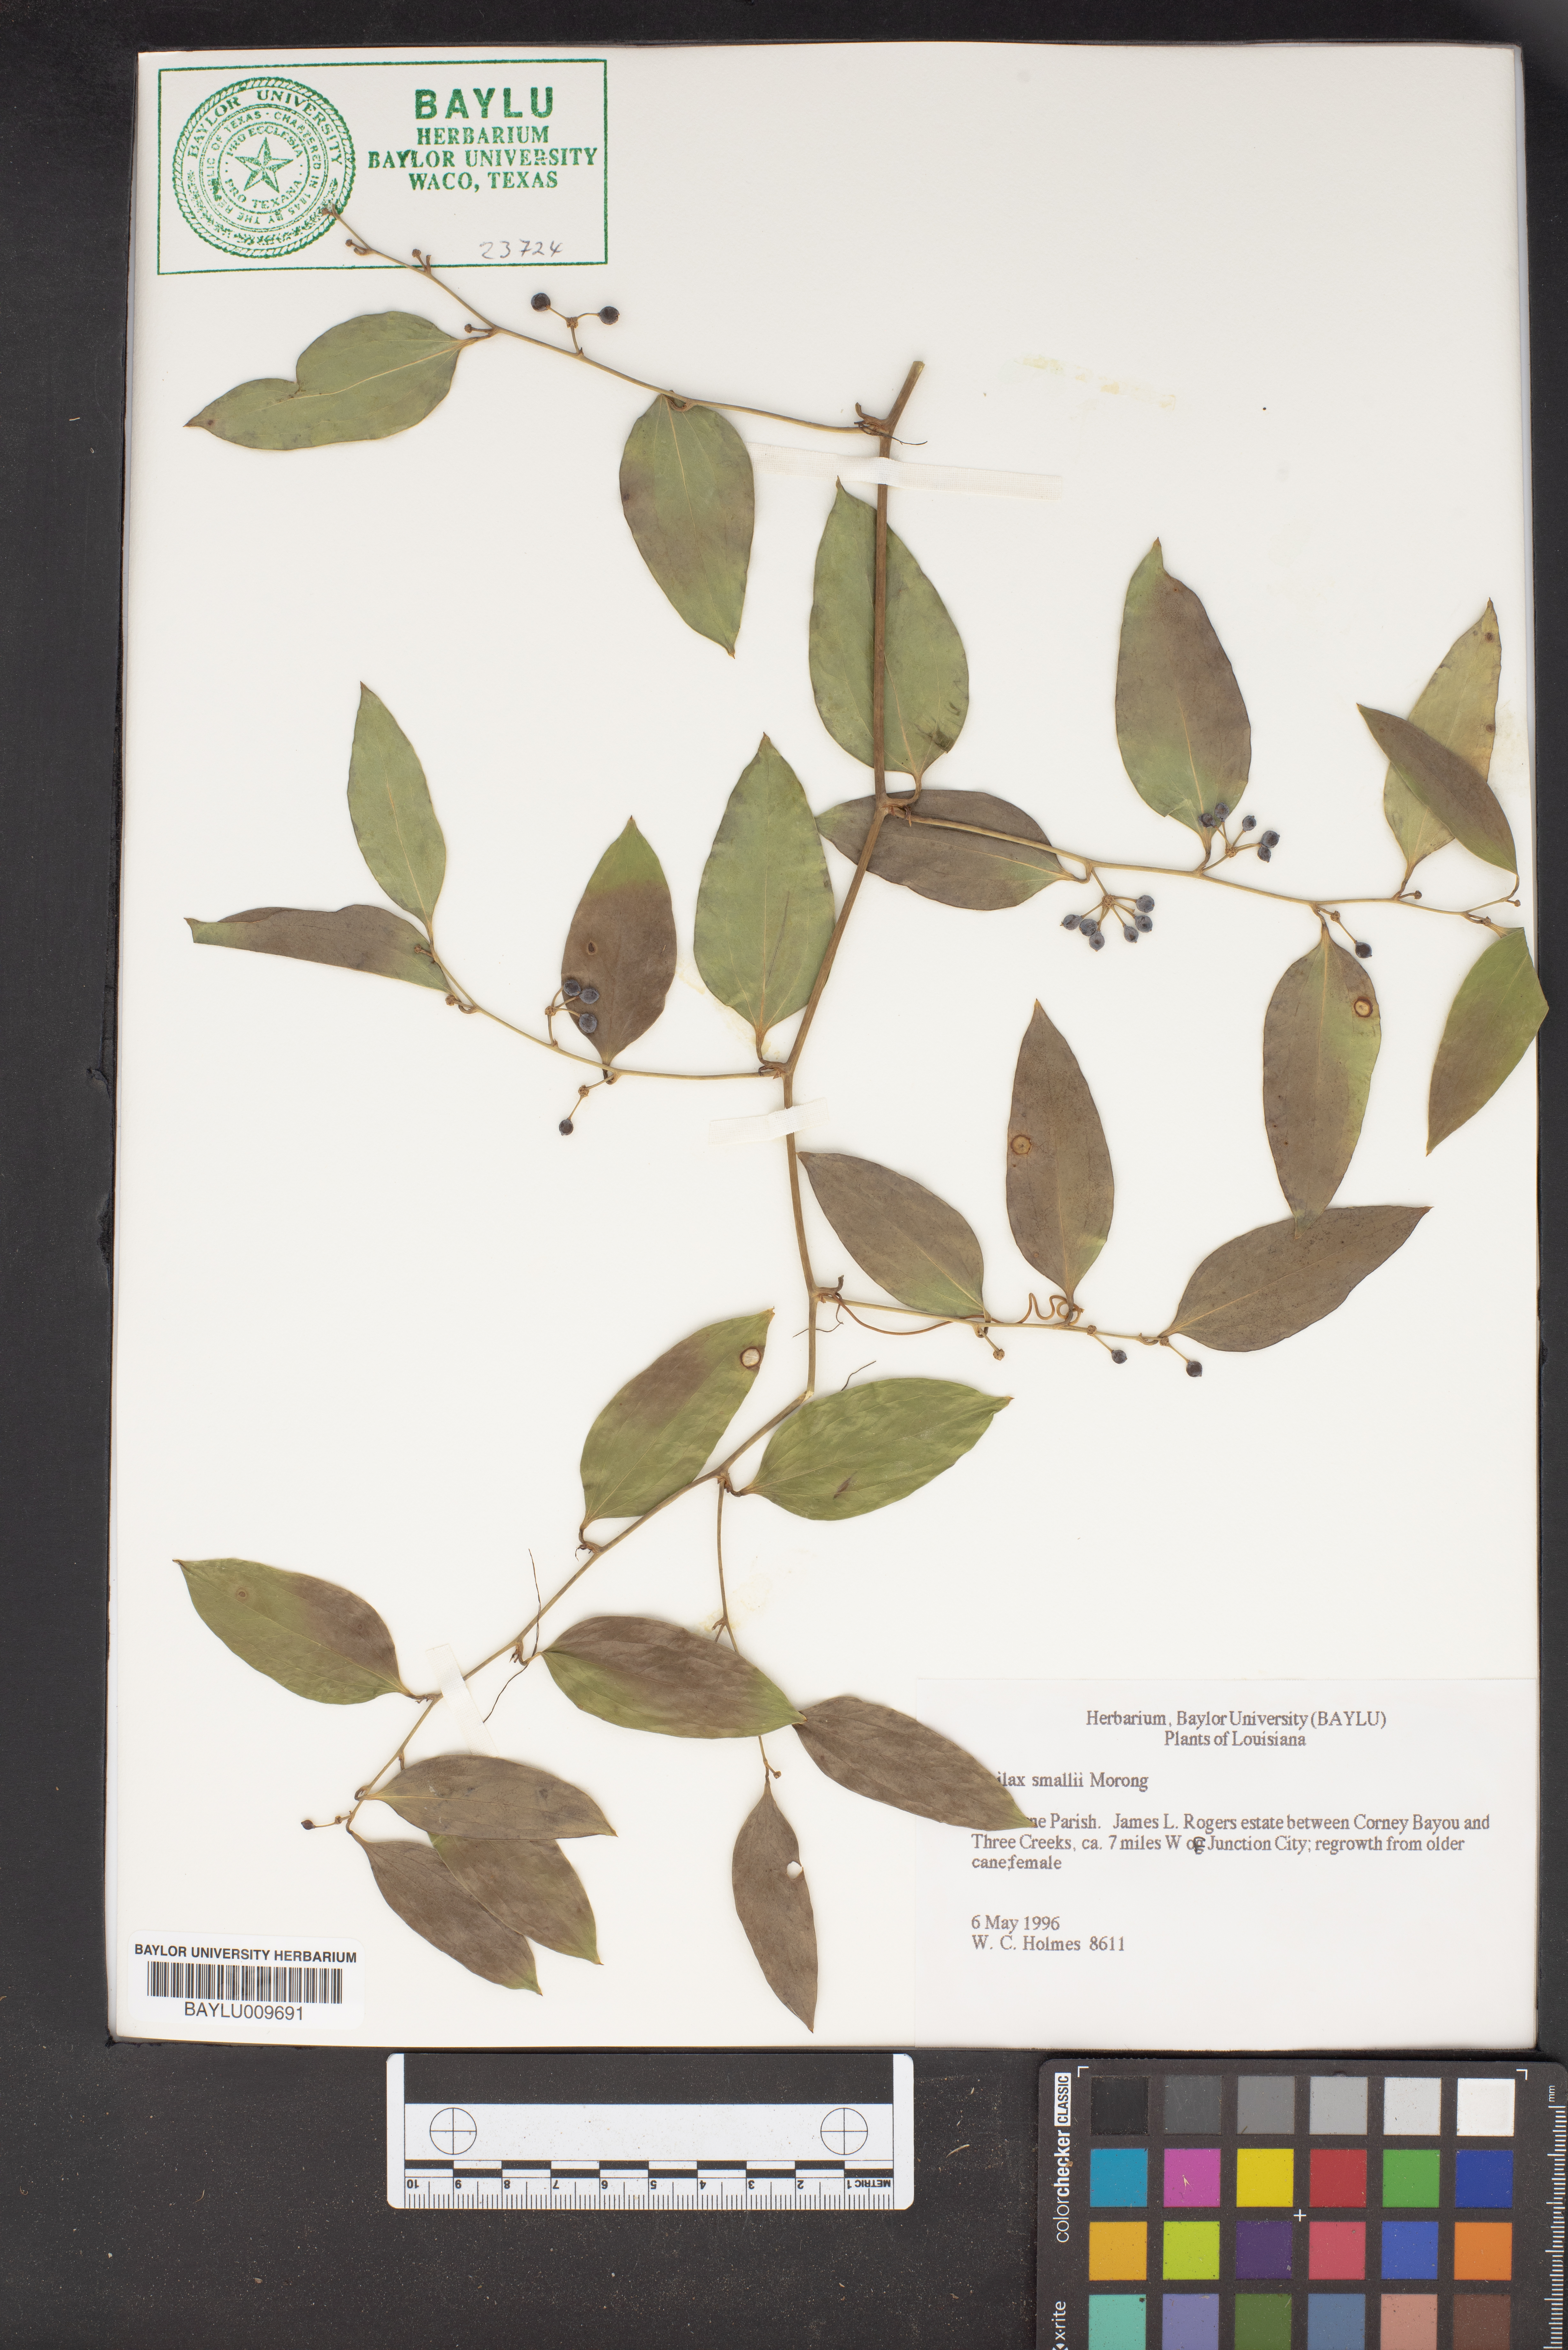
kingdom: Plantae
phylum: Tracheophyta
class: Liliopsida
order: Liliales
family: Smilacaceae
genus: Smilax
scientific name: Smilax maritima
